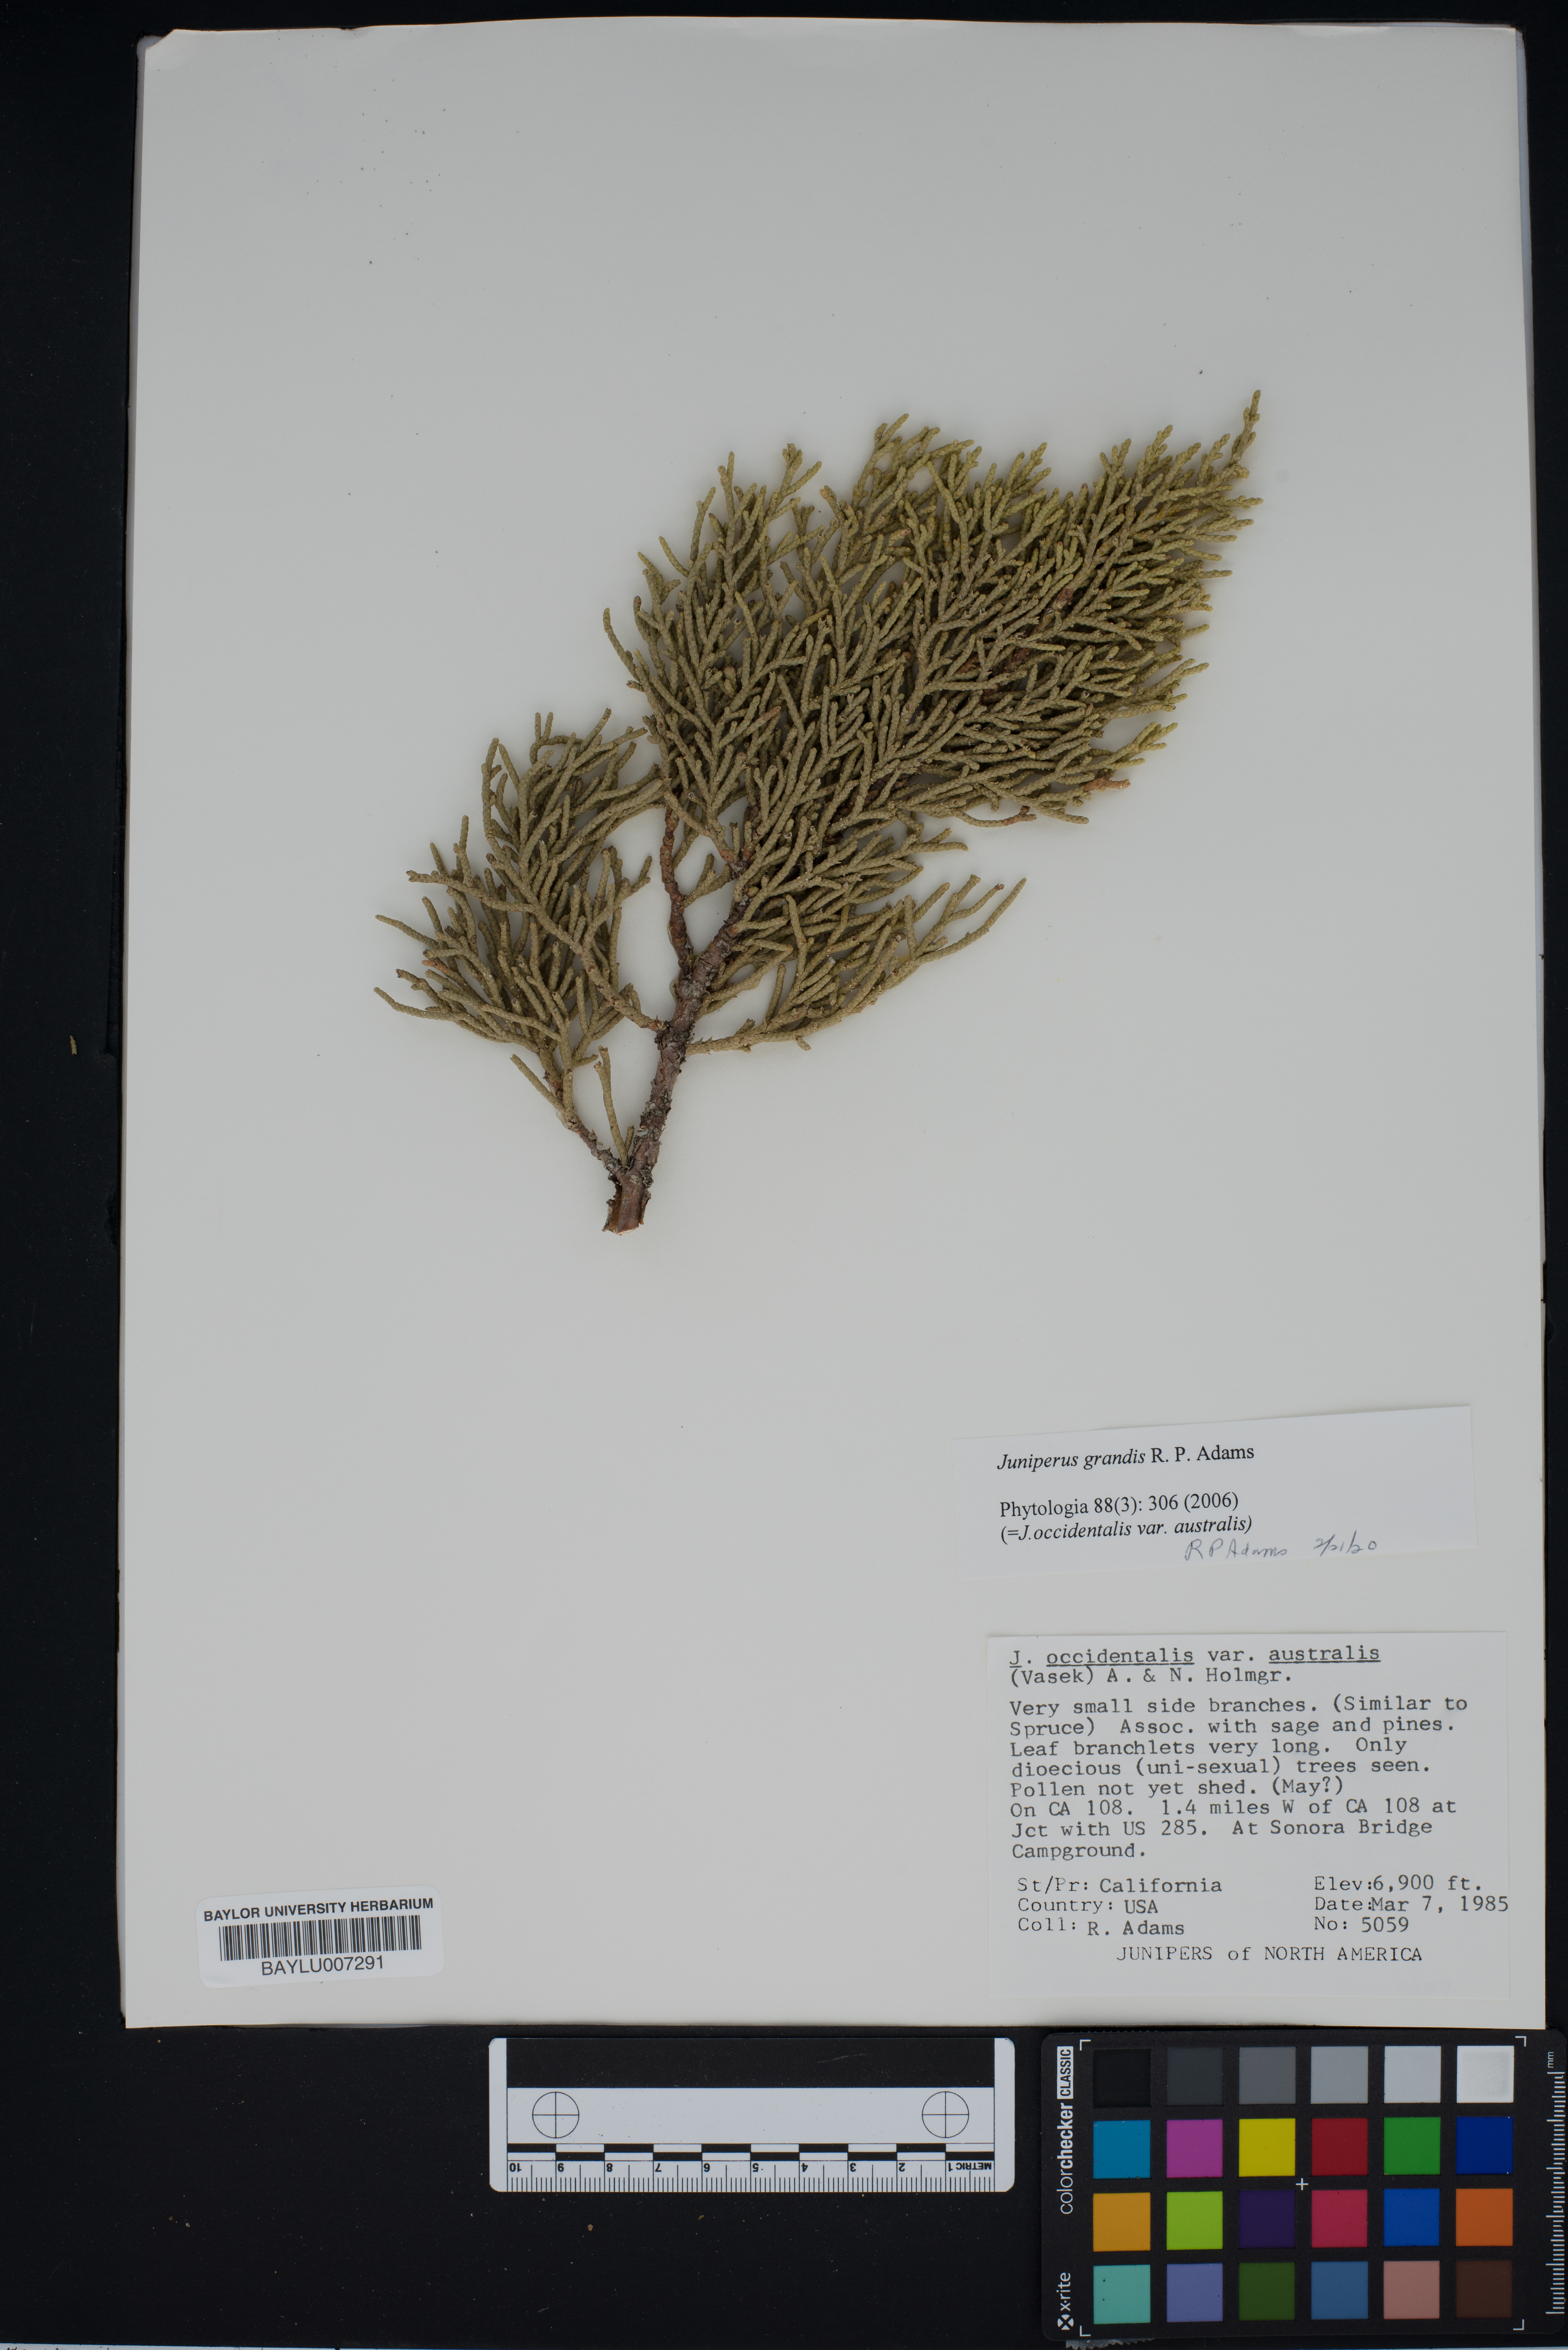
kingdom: Plantae
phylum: Tracheophyta
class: Pinopsida
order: Pinales
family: Cupressaceae
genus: Juniperus
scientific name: Juniperus occidentalis
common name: Western juniper
